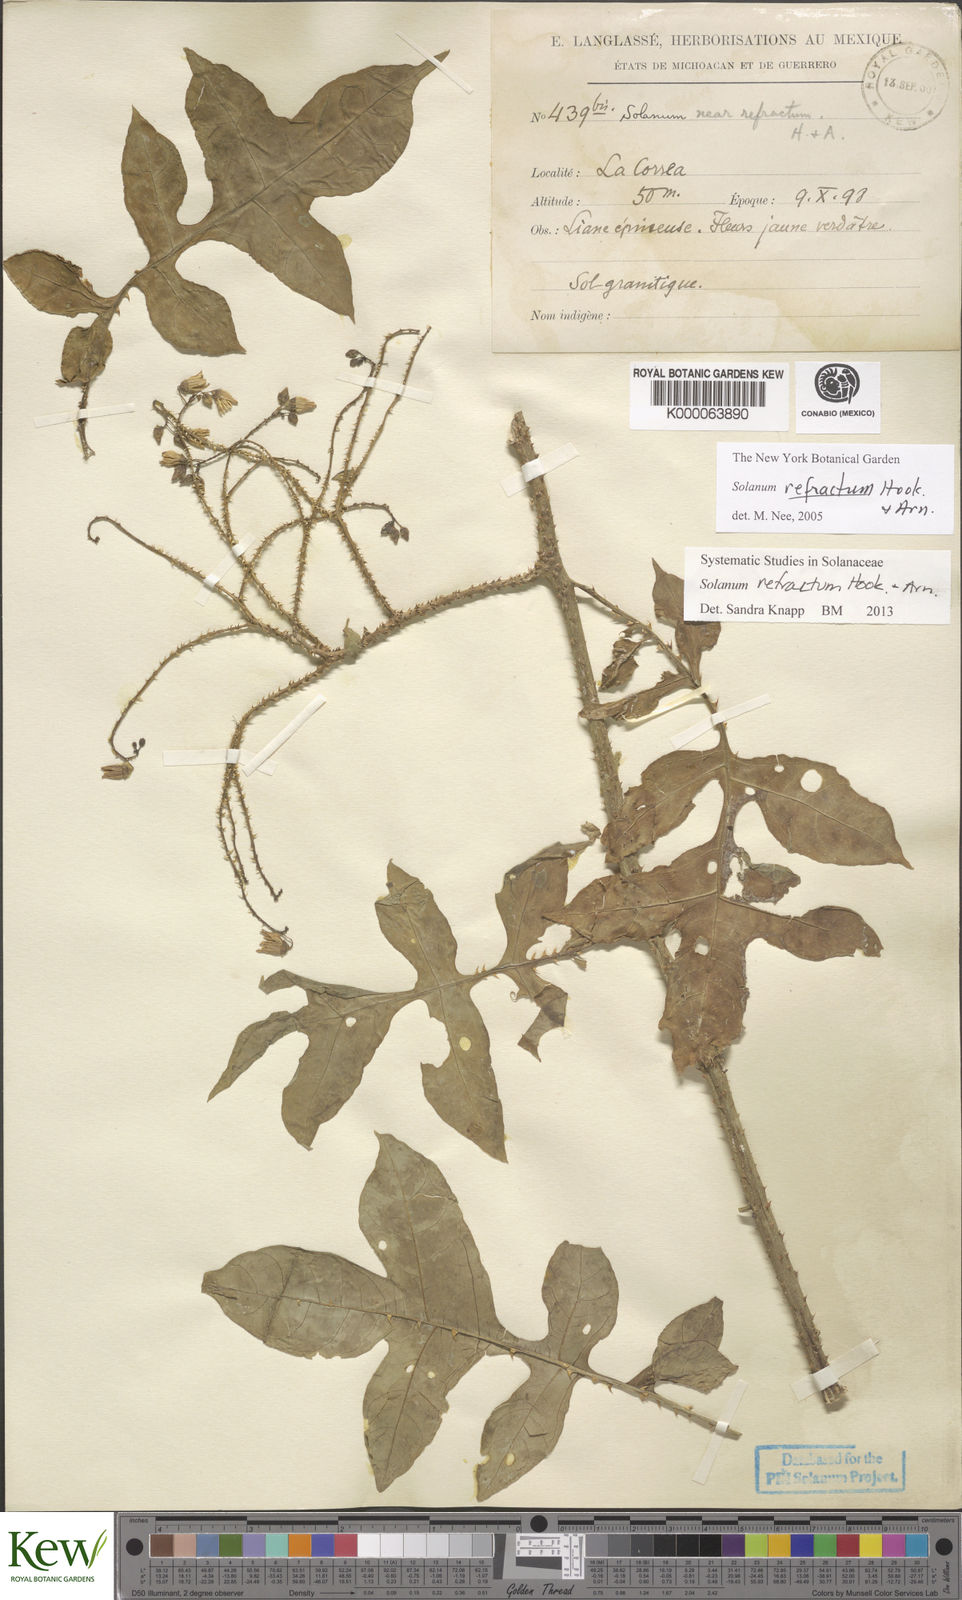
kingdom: Plantae
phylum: Tracheophyta
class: Magnoliopsida
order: Solanales
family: Solanaceae
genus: Solanum
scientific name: Solanum refractum
